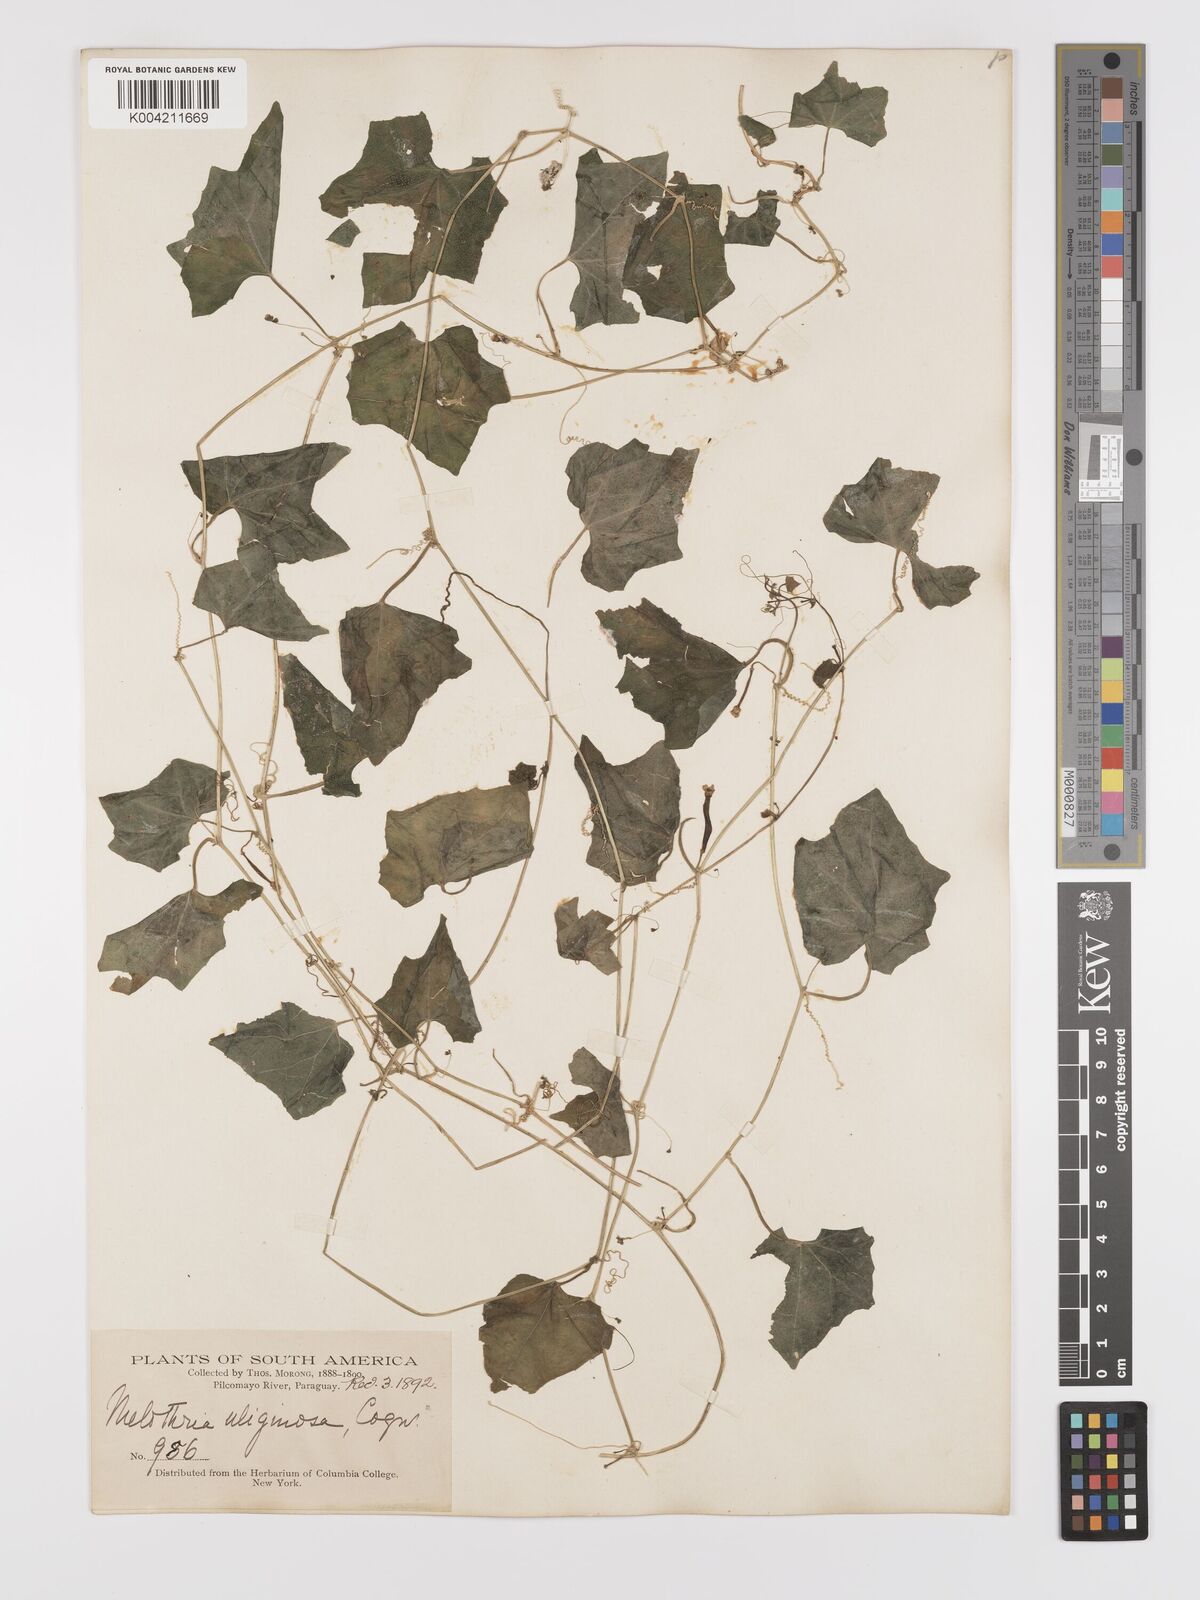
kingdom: Plantae
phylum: Tracheophyta
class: Magnoliopsida
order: Cucurbitales
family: Cucurbitaceae
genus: Melothria
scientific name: Melothria cucumis
